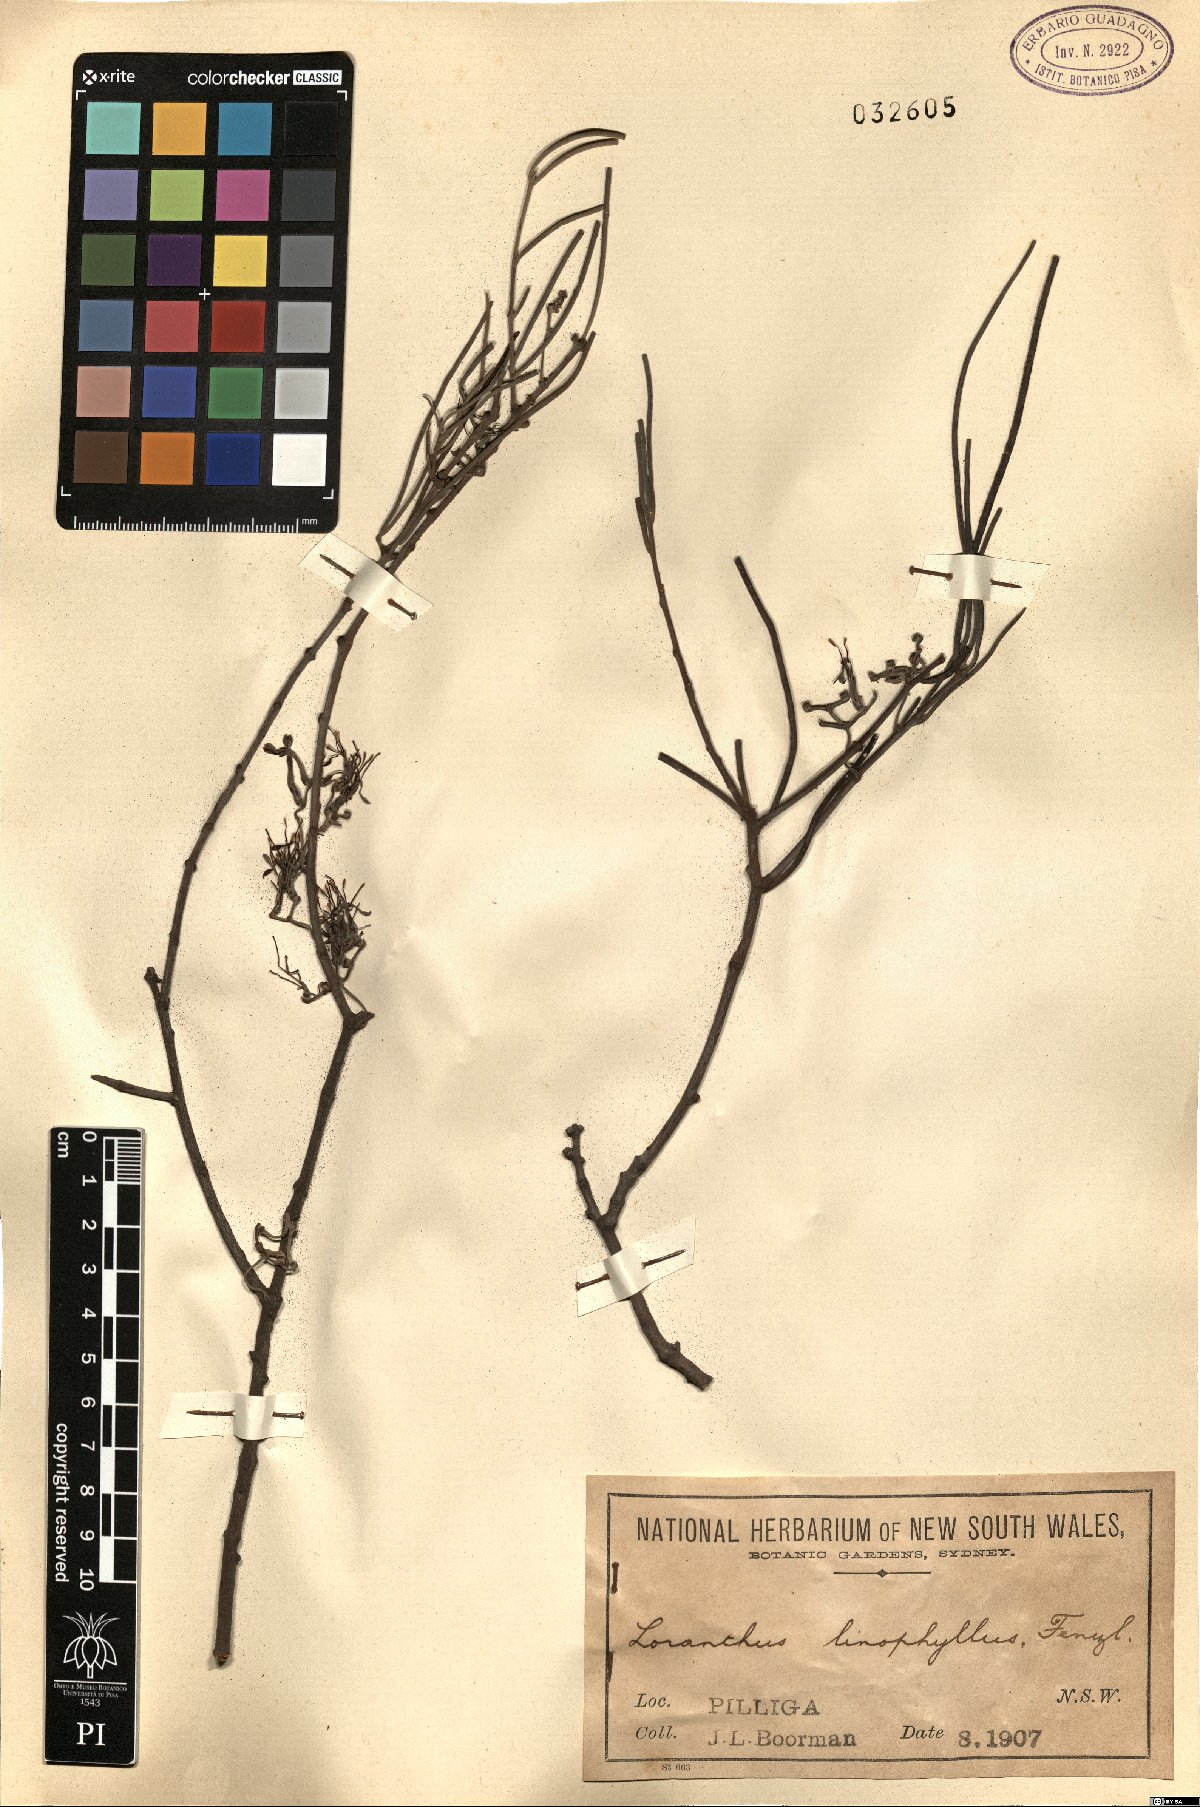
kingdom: Plantae
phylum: Tracheophyta
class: Magnoliopsida
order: Santalales
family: Loranthaceae
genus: Amyema
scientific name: Amyema linophylla
